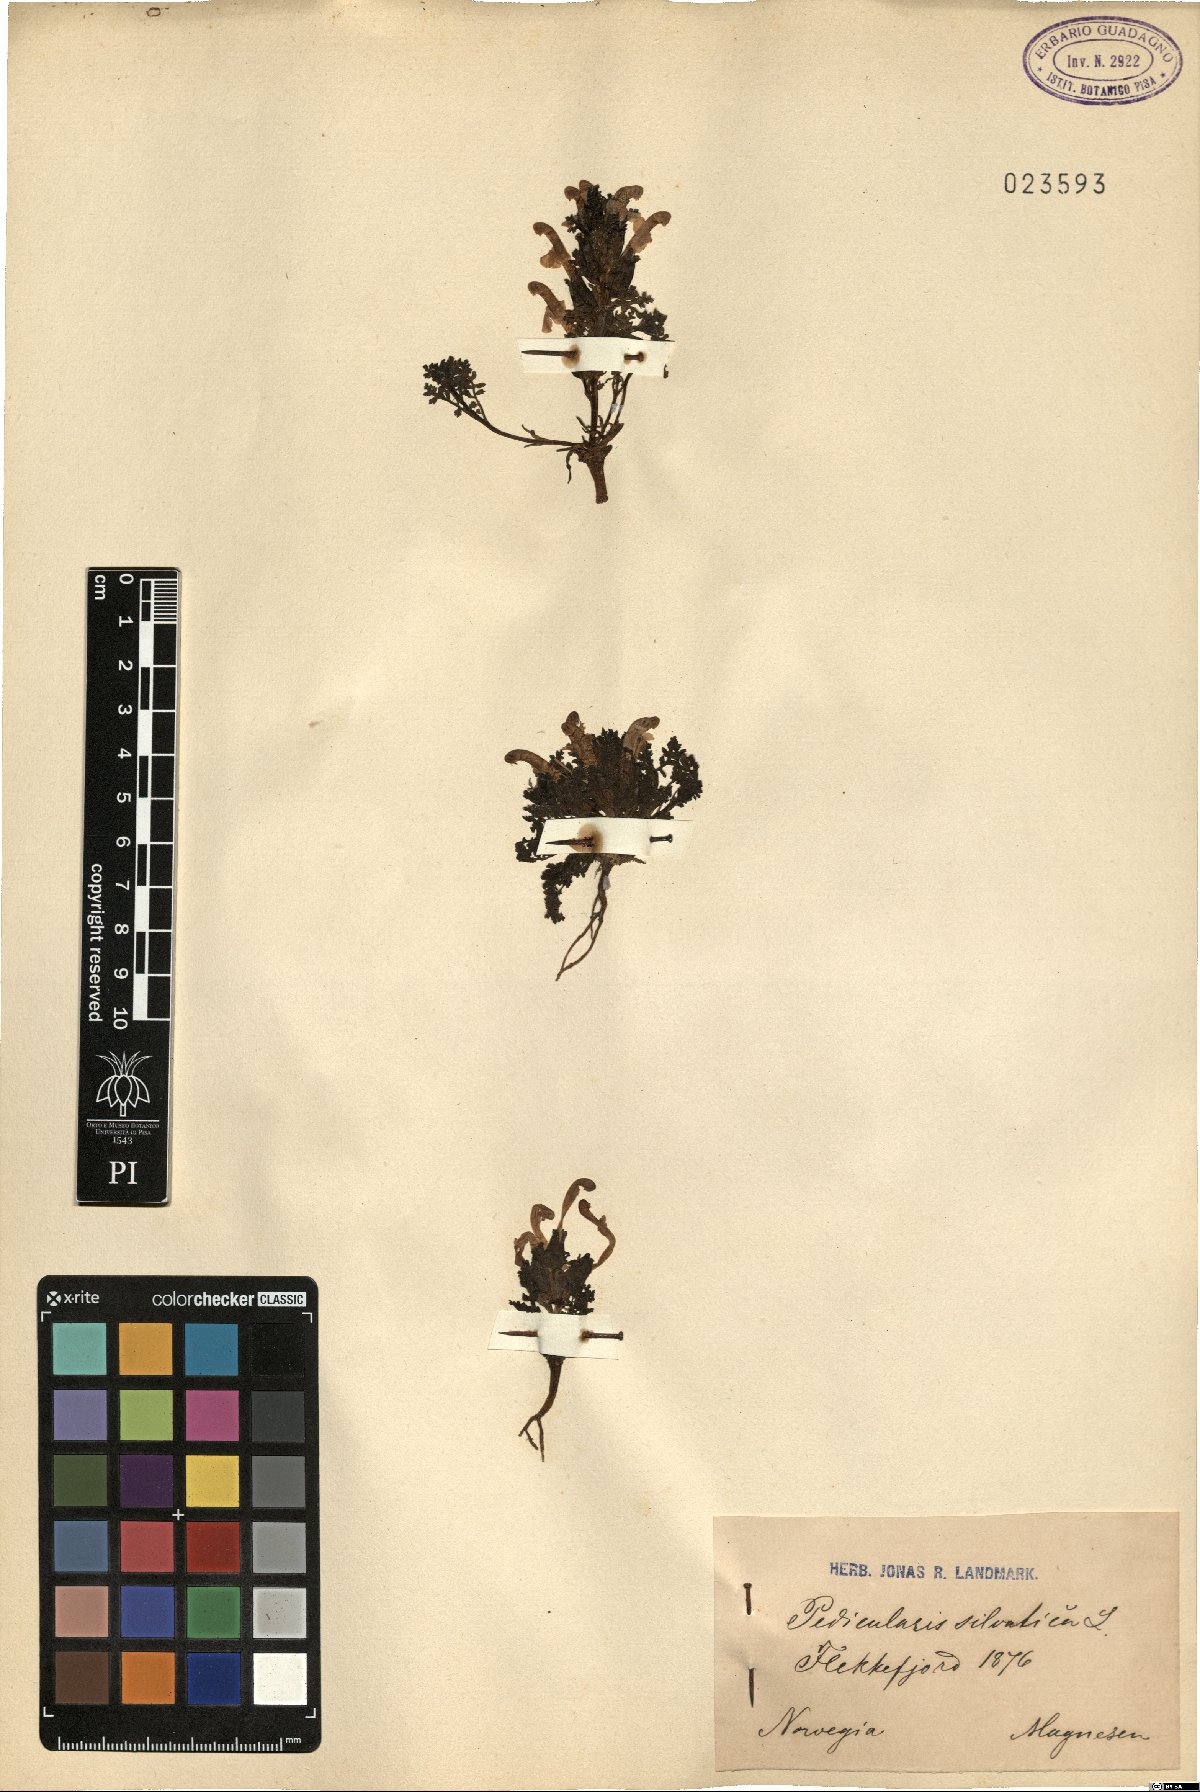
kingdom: Plantae
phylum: Tracheophyta
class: Magnoliopsida
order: Lamiales
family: Orobanchaceae
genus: Pedicularis
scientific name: Pedicularis sylvatica
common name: Lousewort
